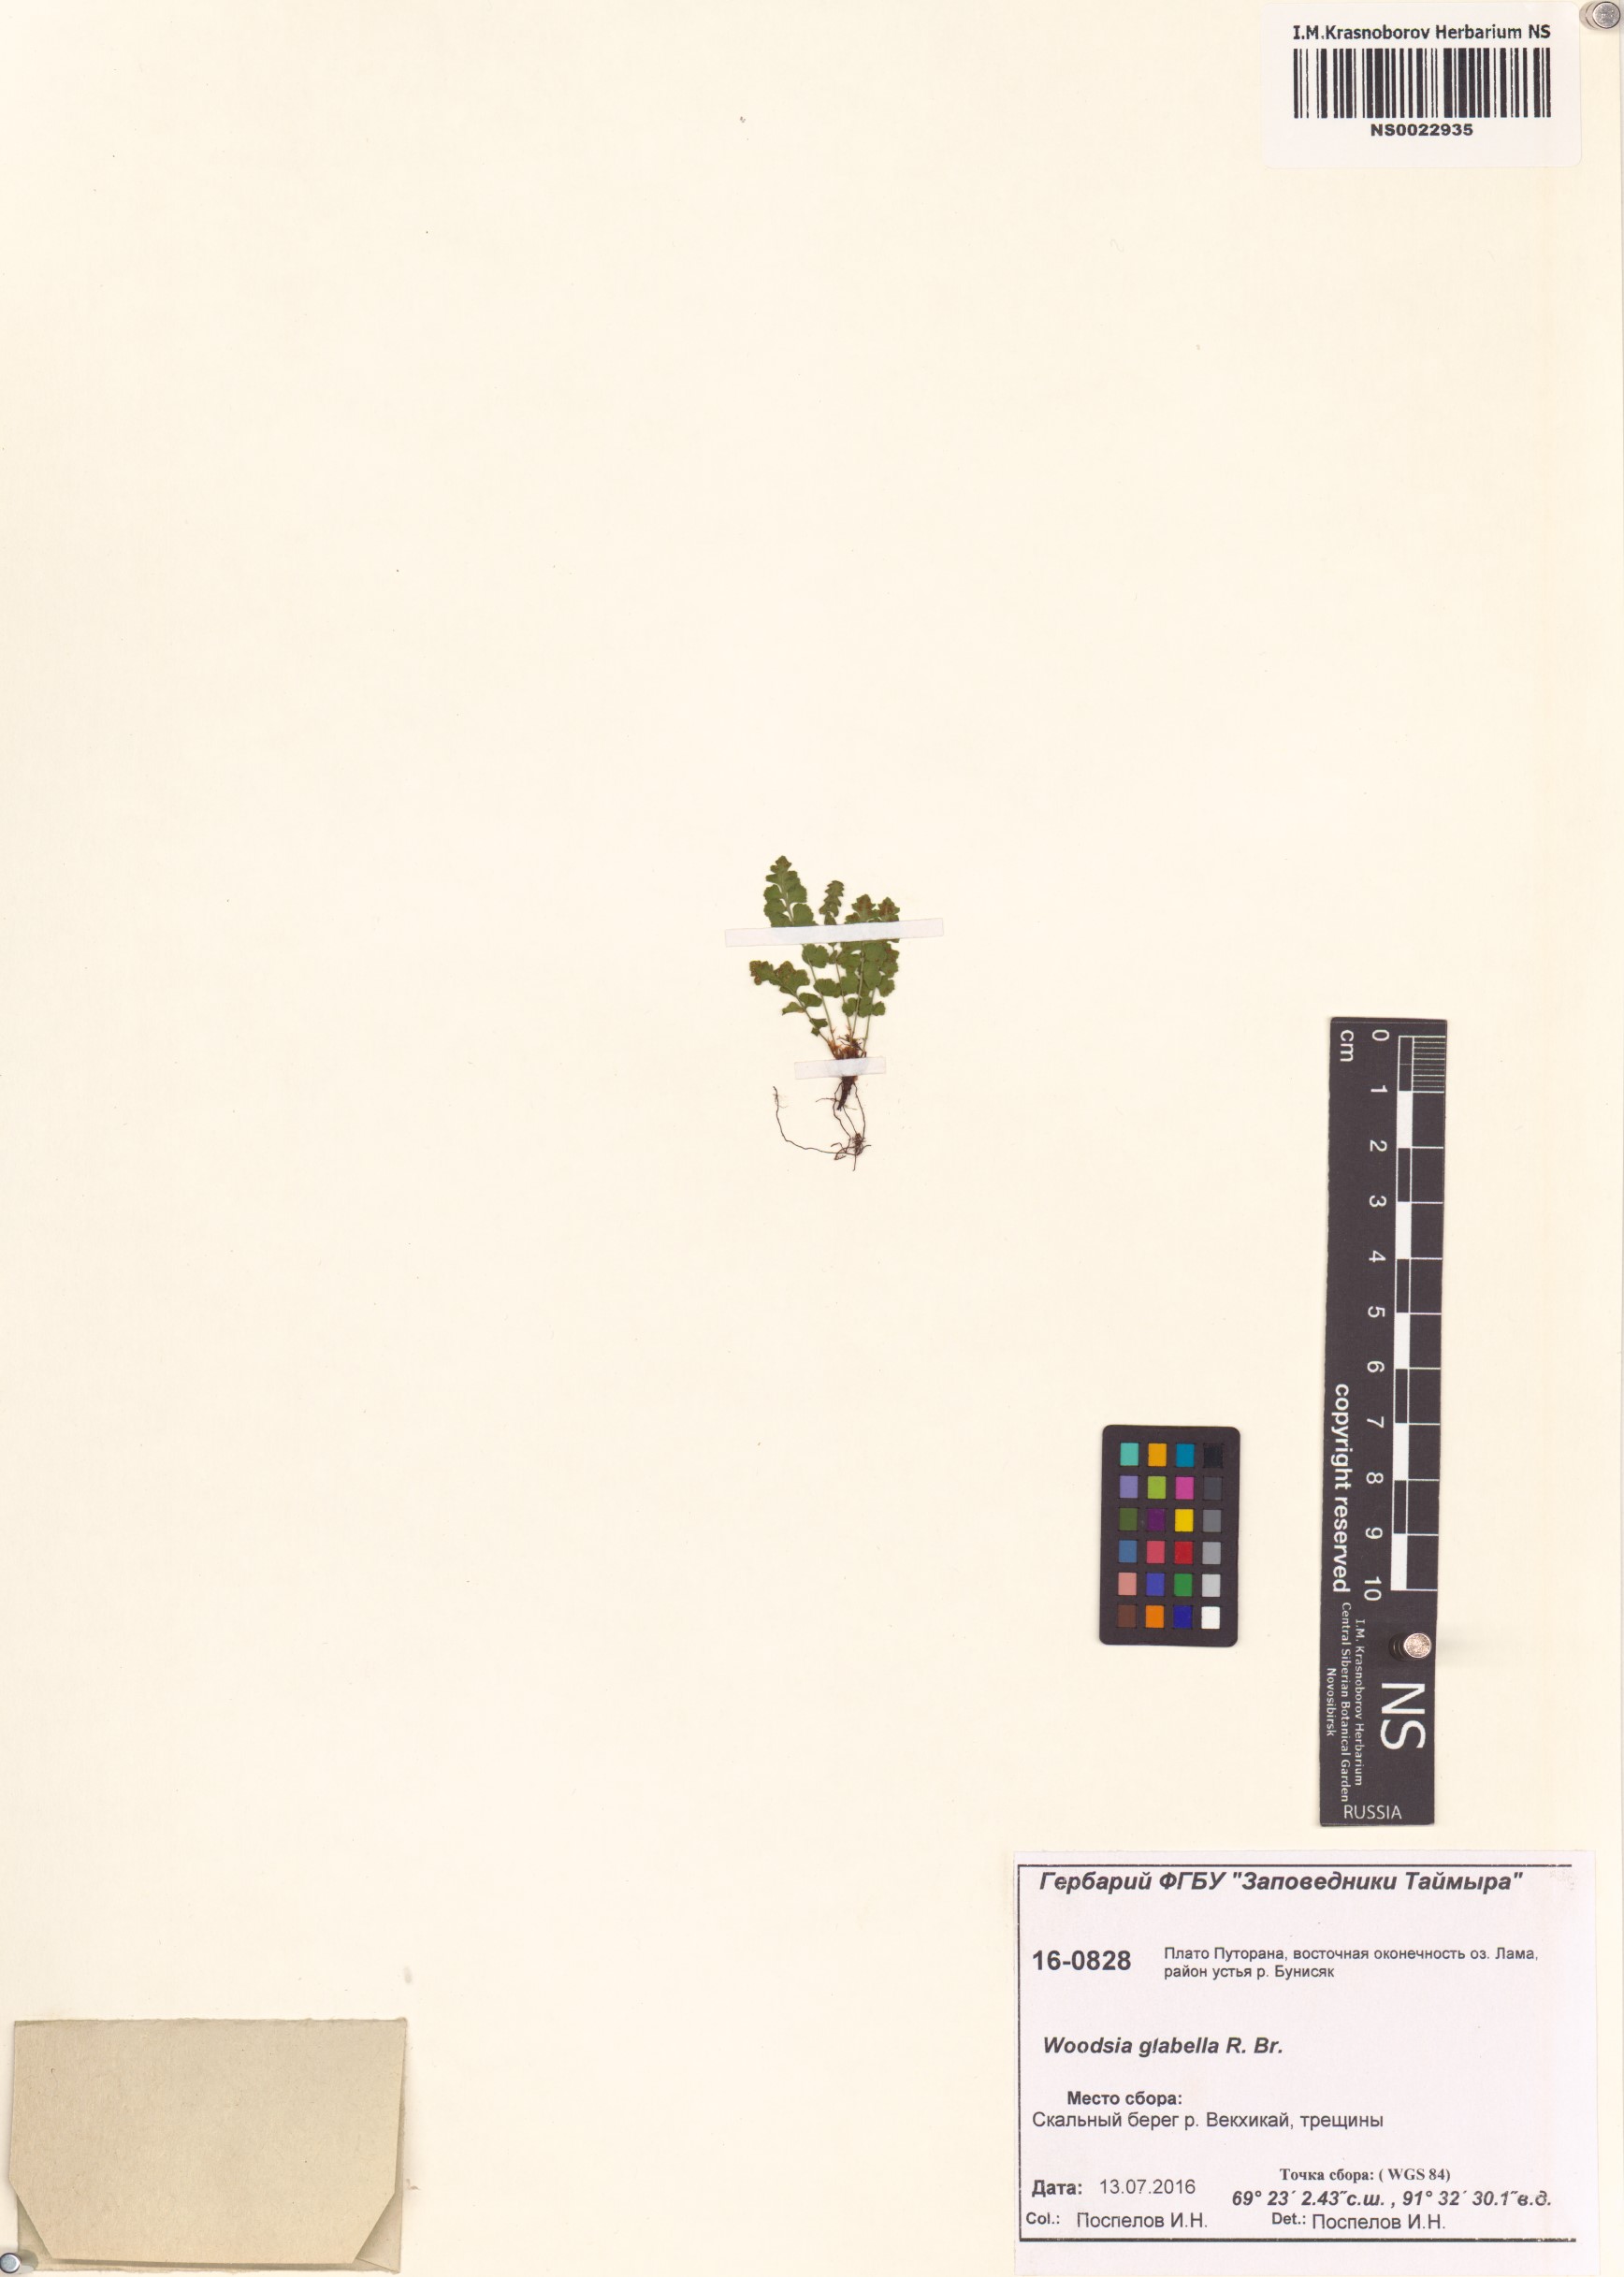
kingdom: Plantae
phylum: Tracheophyta
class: Polypodiopsida
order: Polypodiales
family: Woodsiaceae
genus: Woodsia
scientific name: Woodsia glabella
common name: Smooth woodsia
